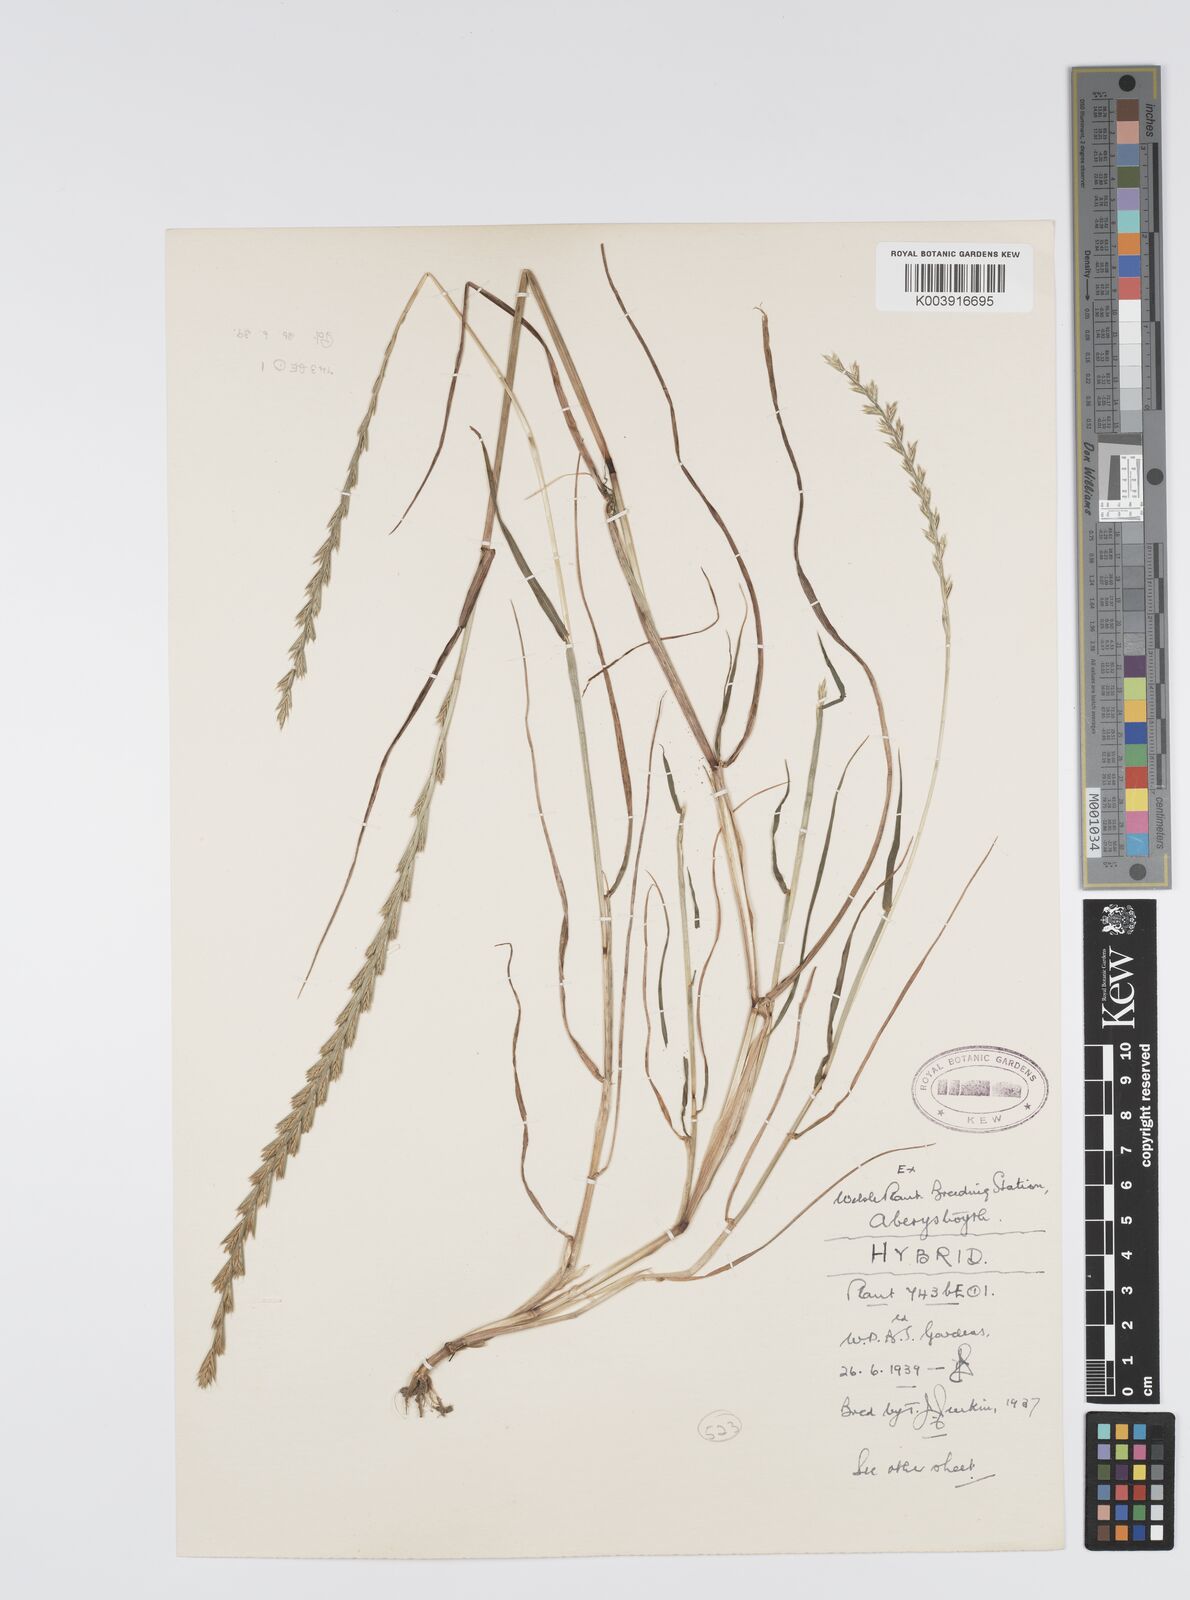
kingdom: Plantae
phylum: Tracheophyta
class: Liliopsida
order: Poales
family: Poaceae
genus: Lolium
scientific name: Lolium perenne
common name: Perennial ryegrass
